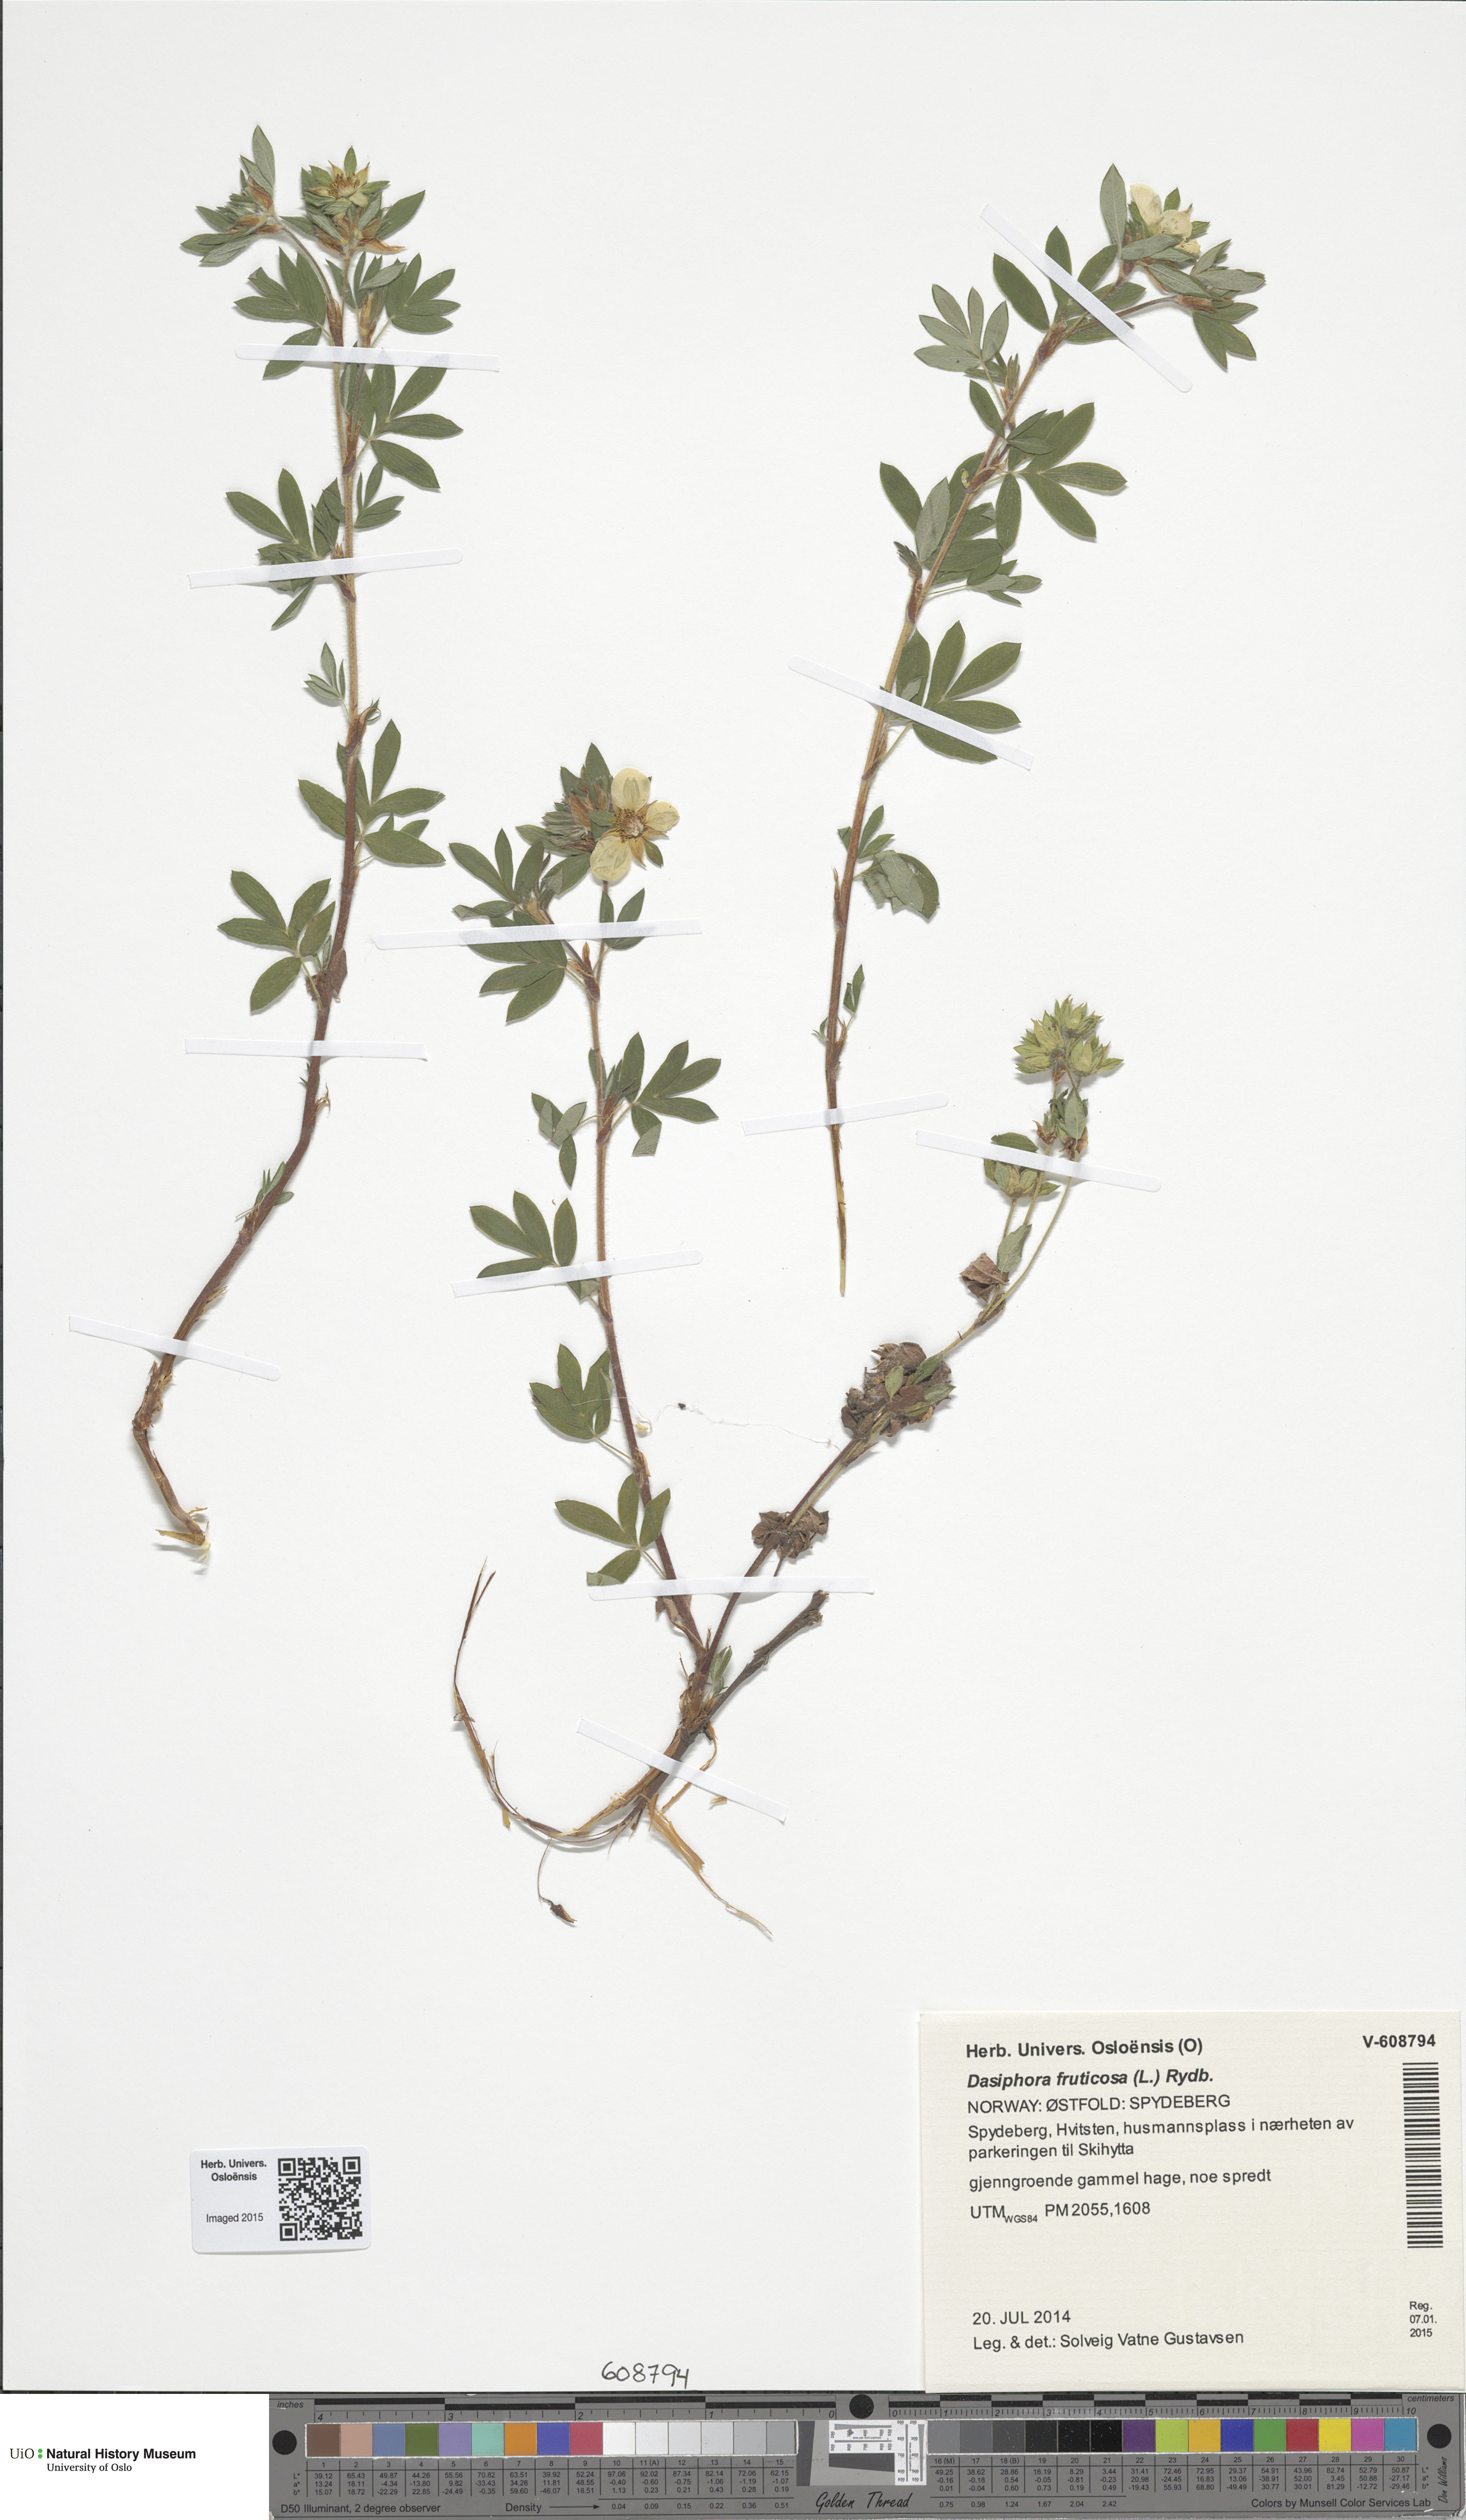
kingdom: Plantae
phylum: Tracheophyta
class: Magnoliopsida
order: Rosales
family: Rosaceae
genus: Dasiphora
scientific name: Dasiphora fruticosa
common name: Shrubby cinquefoil
